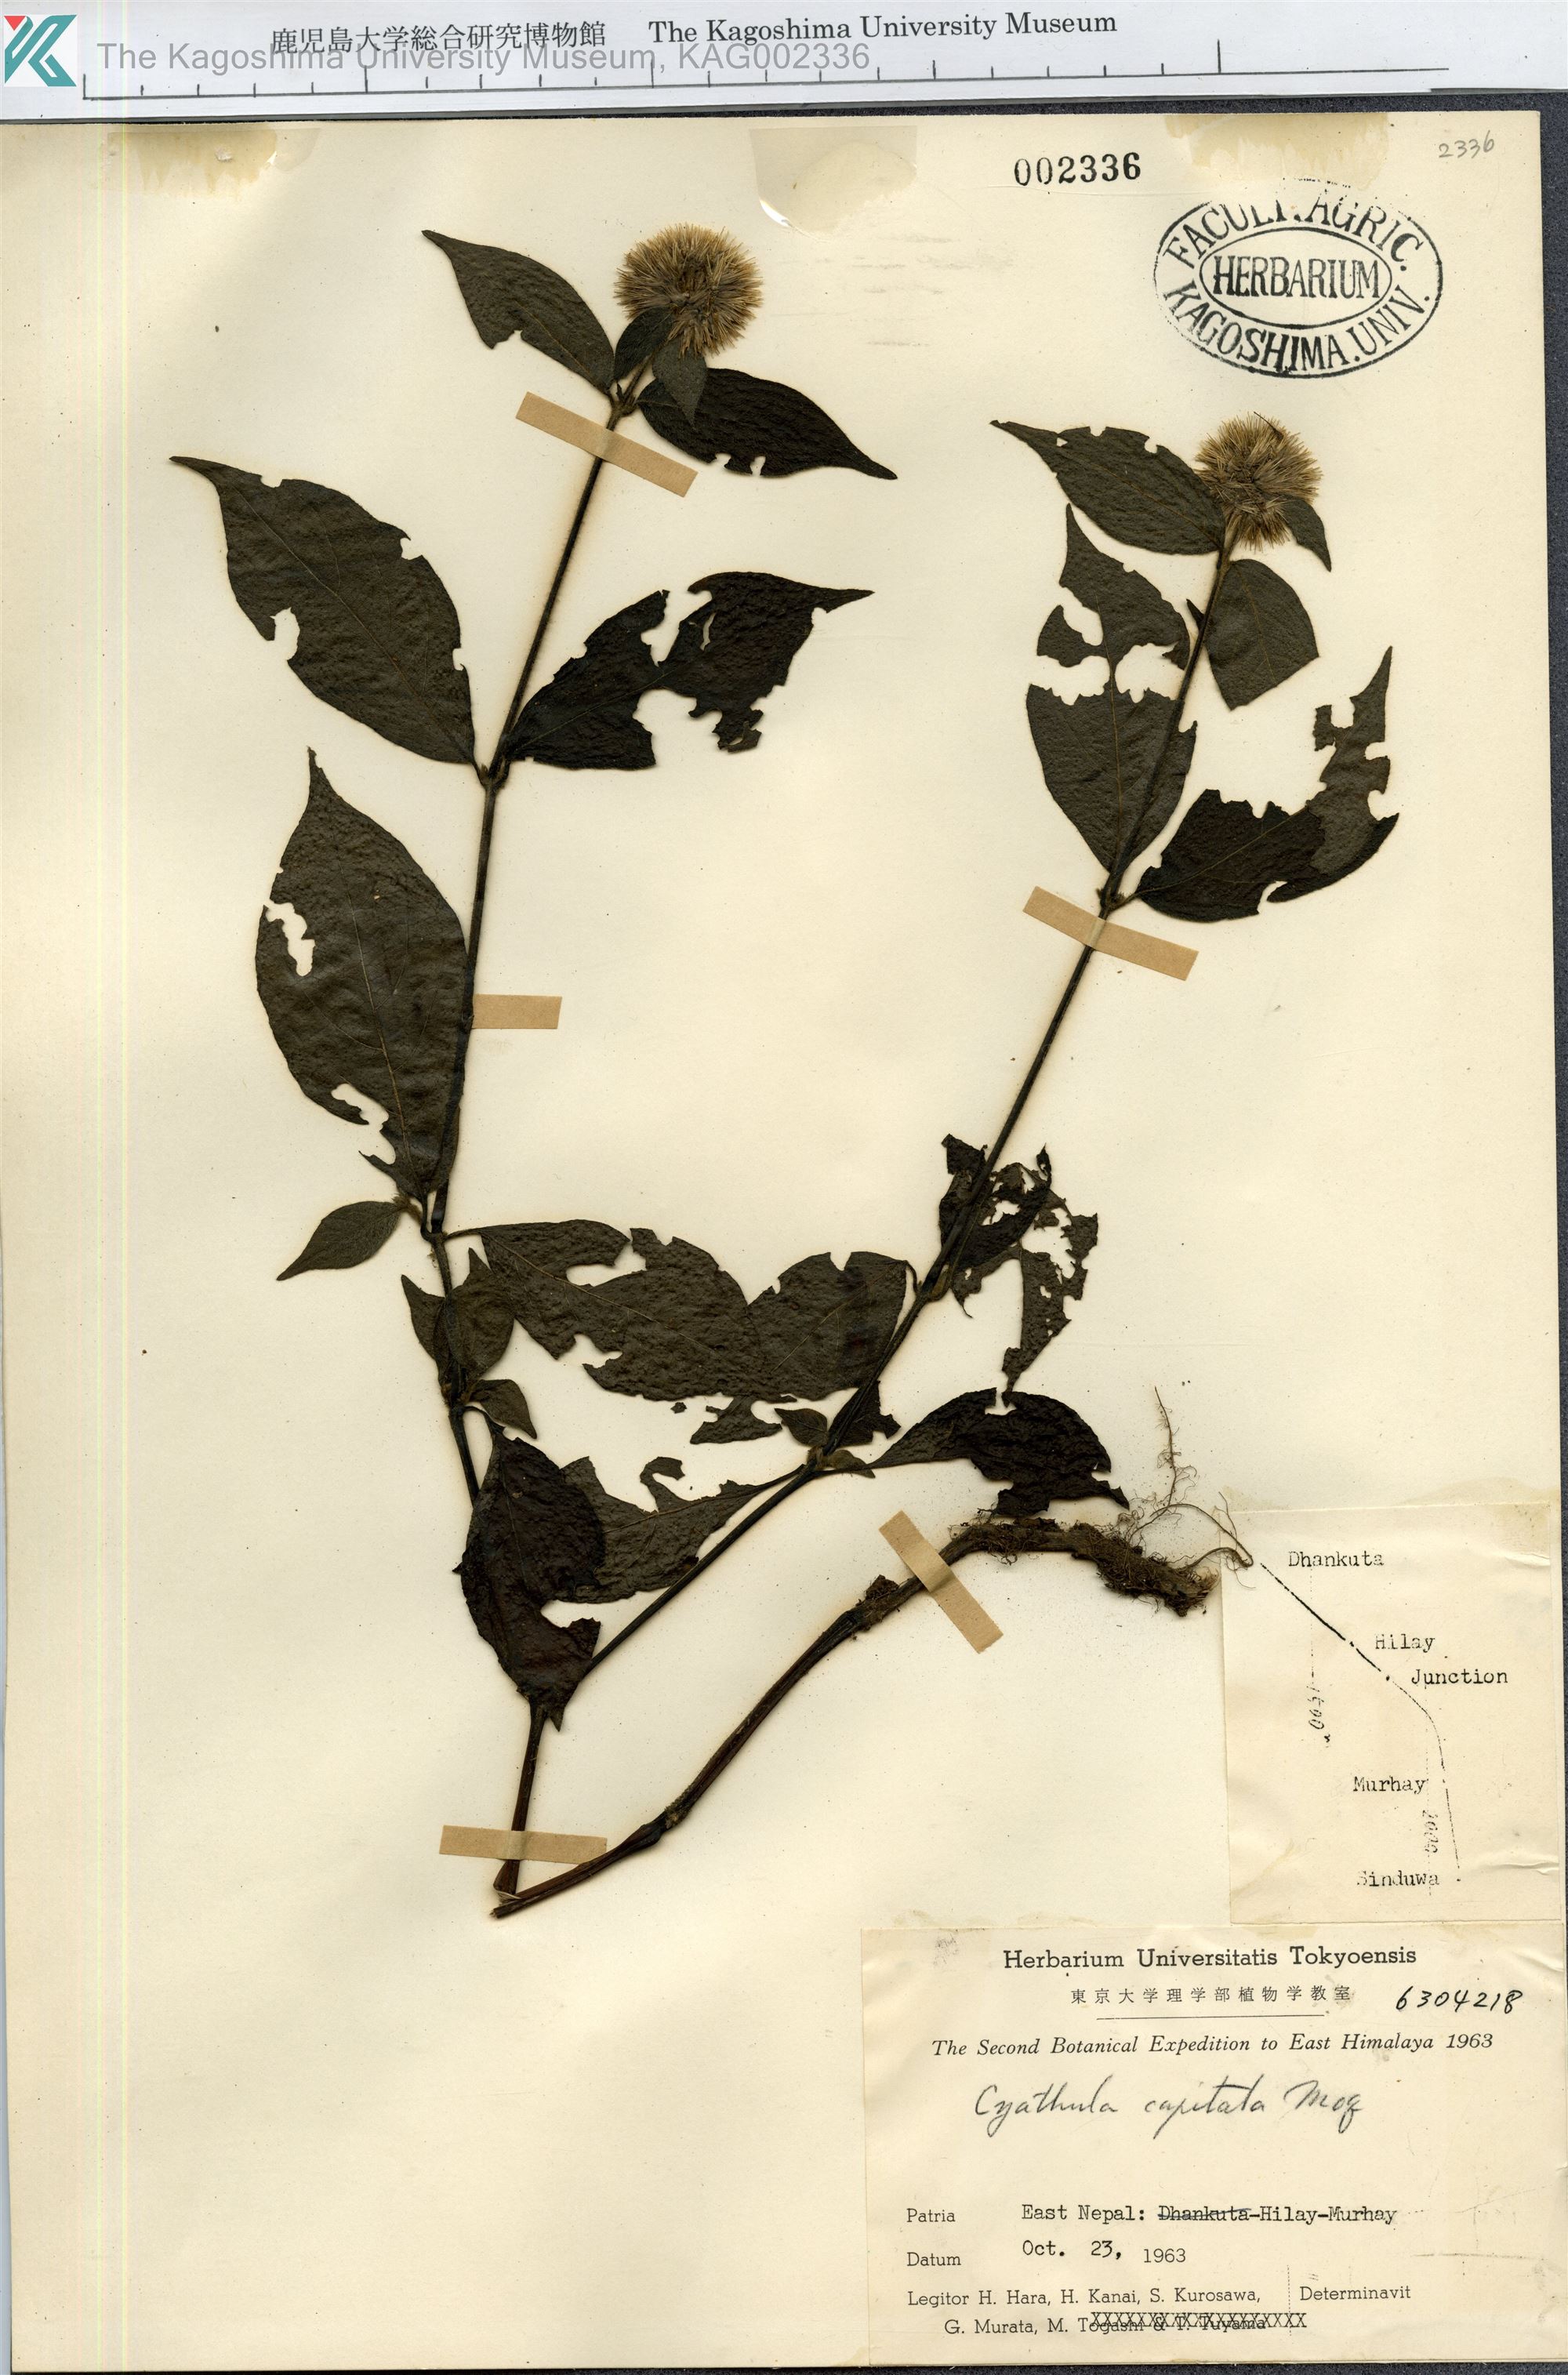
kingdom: Plantae
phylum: Tracheophyta
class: Magnoliopsida
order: Caryophyllales
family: Amaranthaceae
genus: Cyathula
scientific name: Cyathula capitata
